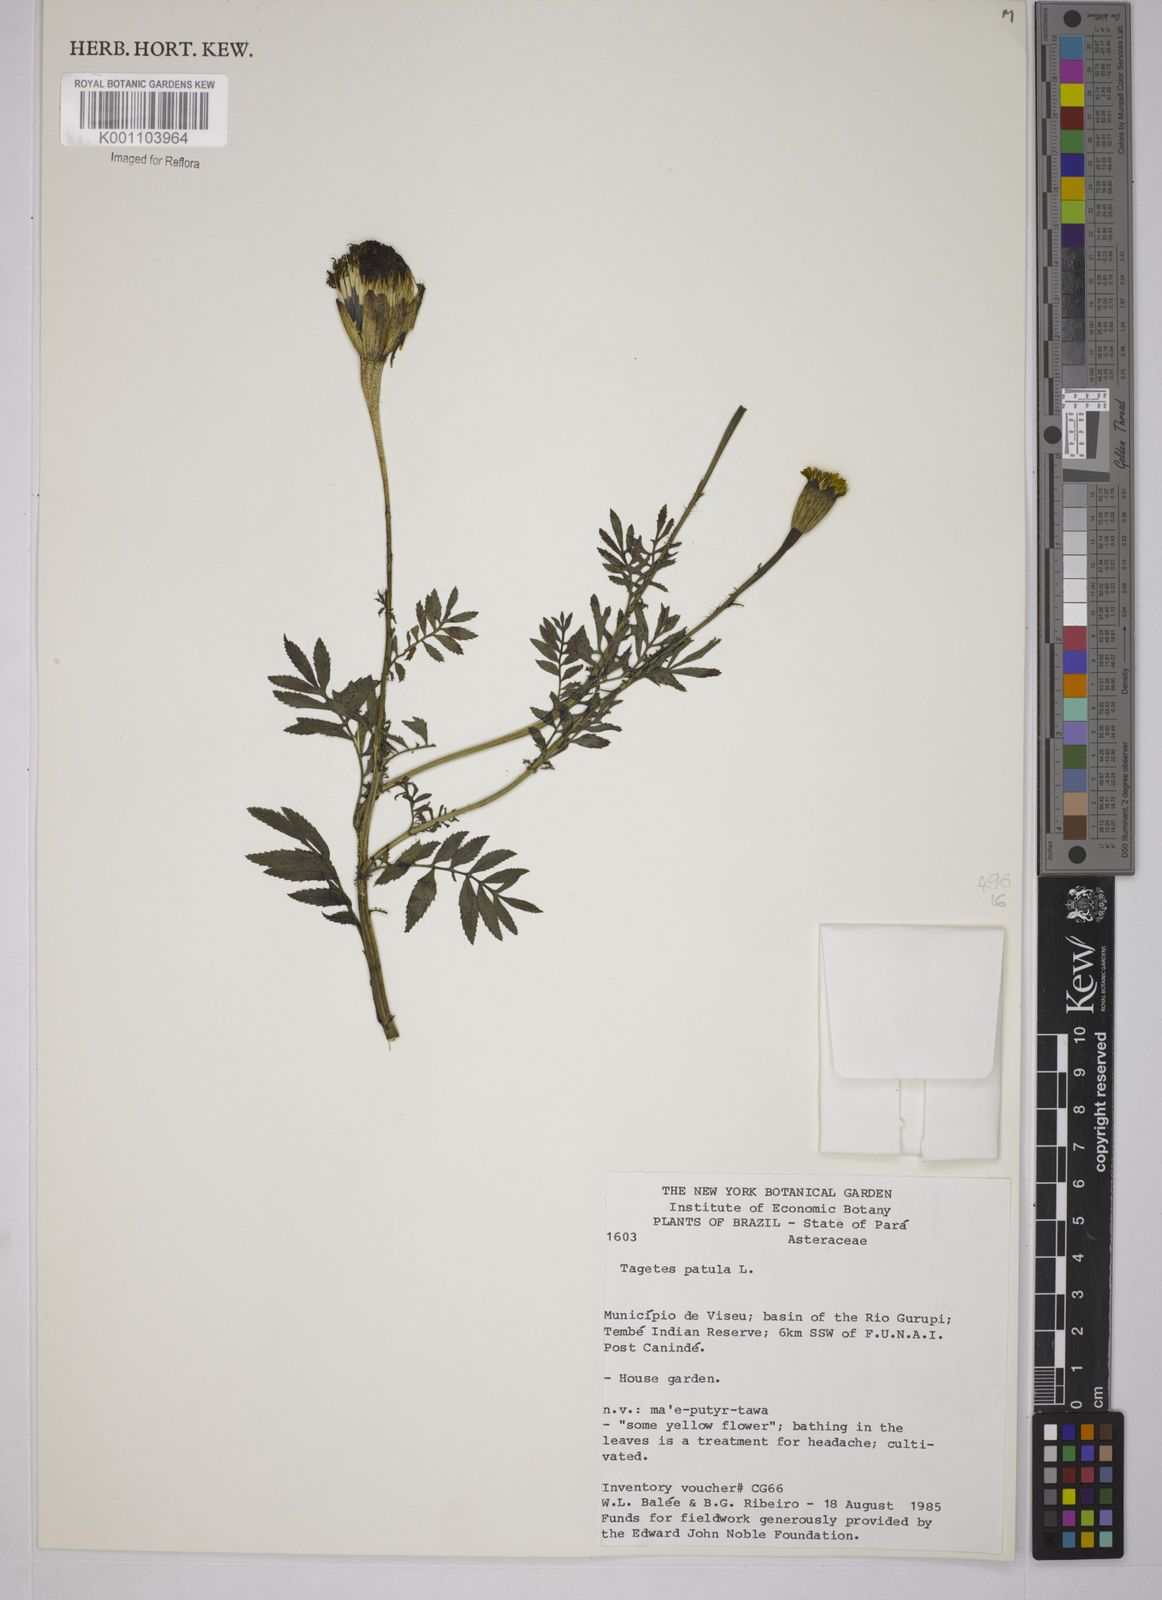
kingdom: Plantae
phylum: Tracheophyta
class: Magnoliopsida
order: Asterales
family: Asteraceae
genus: Tagetes
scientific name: Tagetes erecta
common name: African marigold
